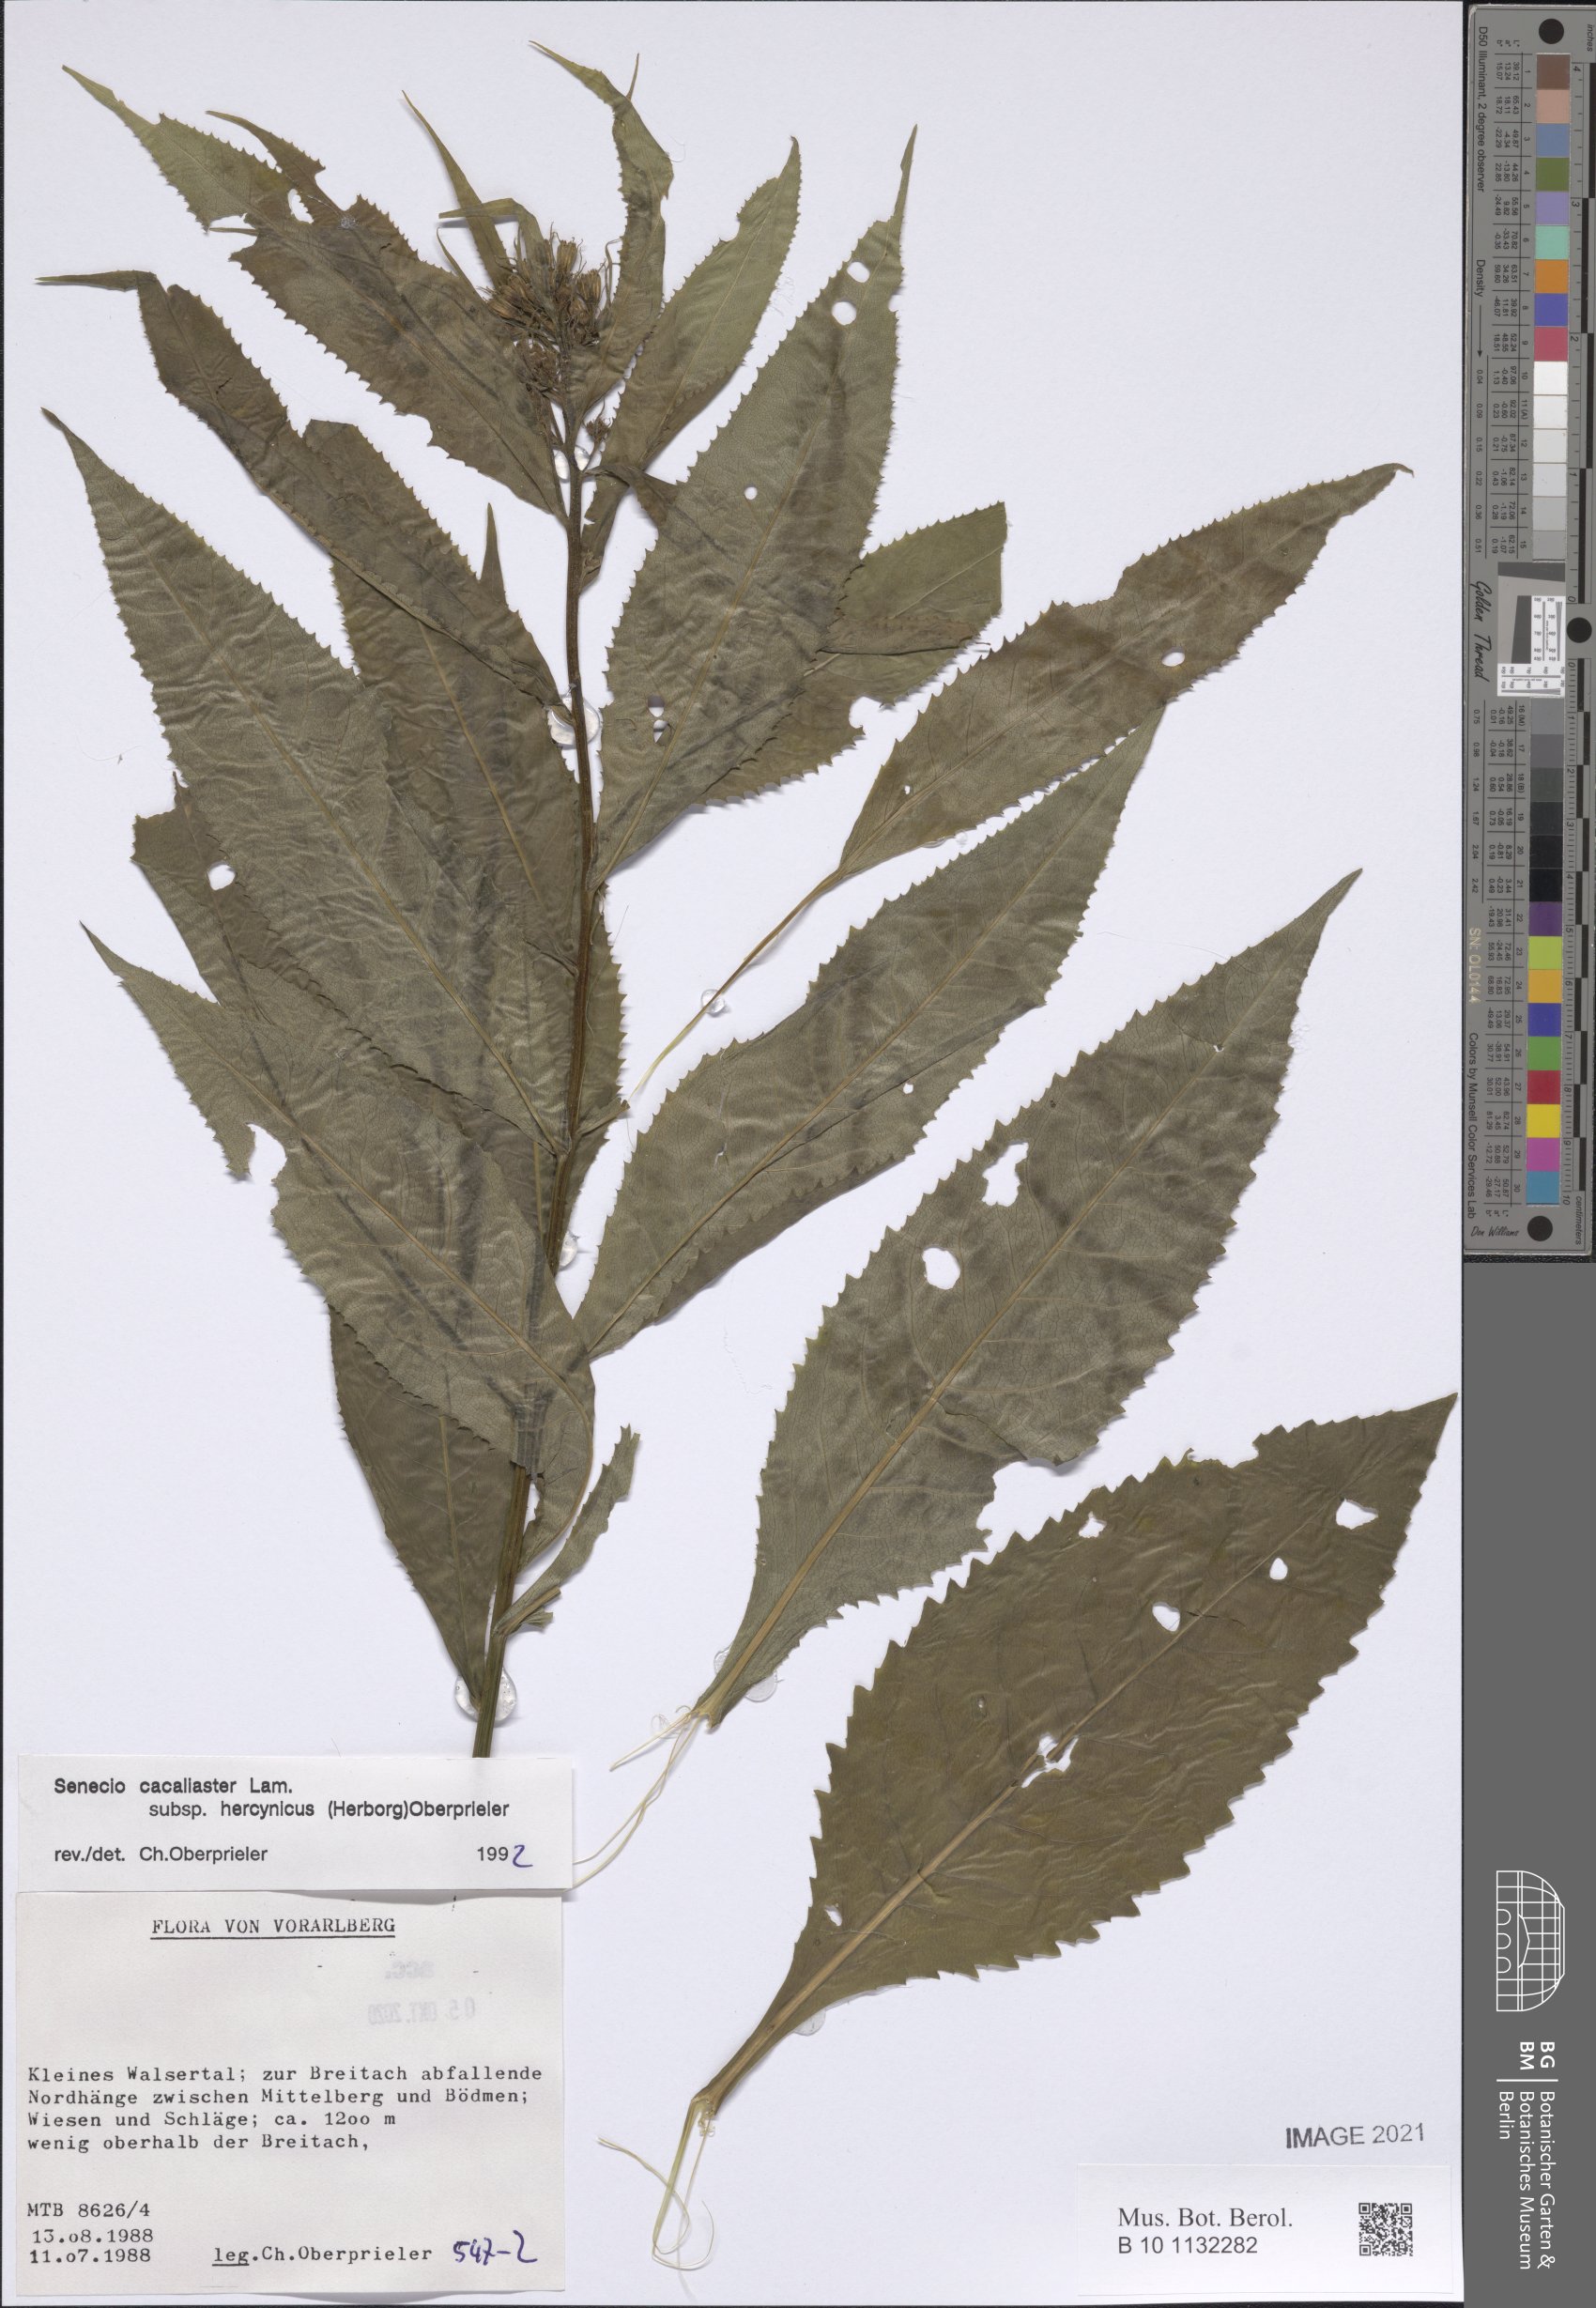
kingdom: Plantae
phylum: Tracheophyta
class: Magnoliopsida
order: Asterales
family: Asteraceae
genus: Senecio
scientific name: Senecio hercynicus
